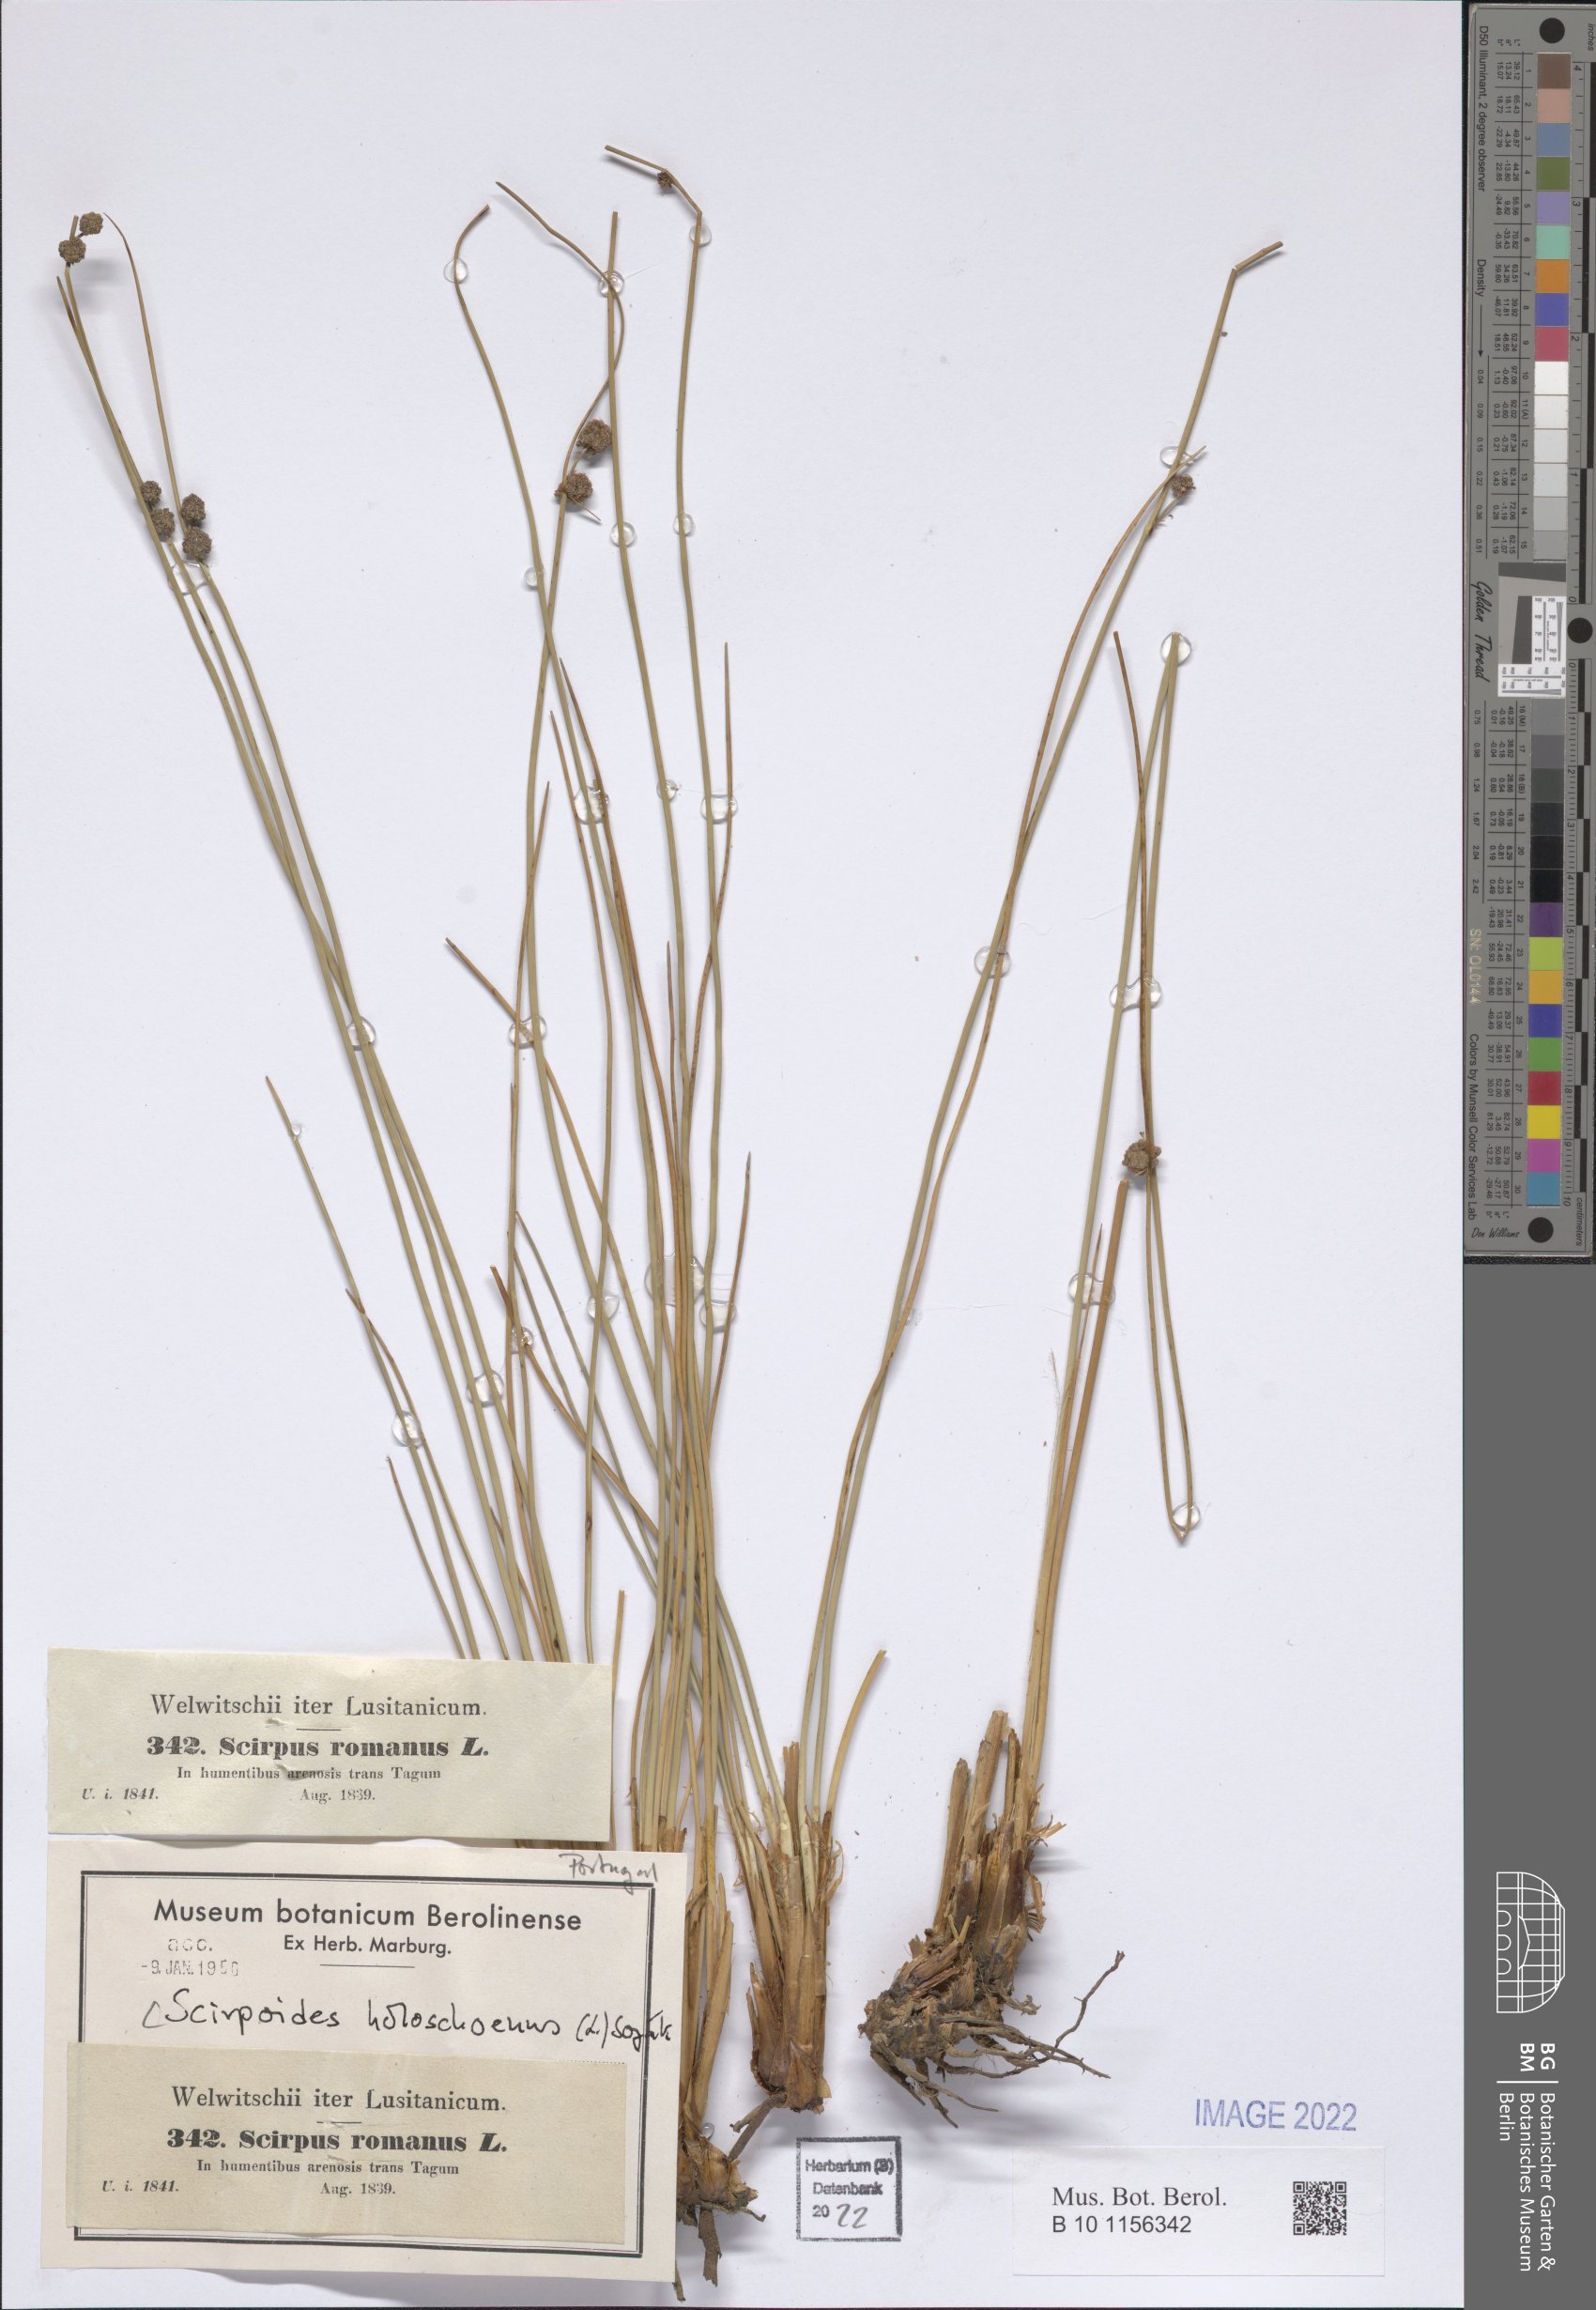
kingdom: Plantae
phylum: Tracheophyta
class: Liliopsida
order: Poales
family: Cyperaceae
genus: Scirpoides
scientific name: Scirpoides holoschoenus
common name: Round-headed club-rush
